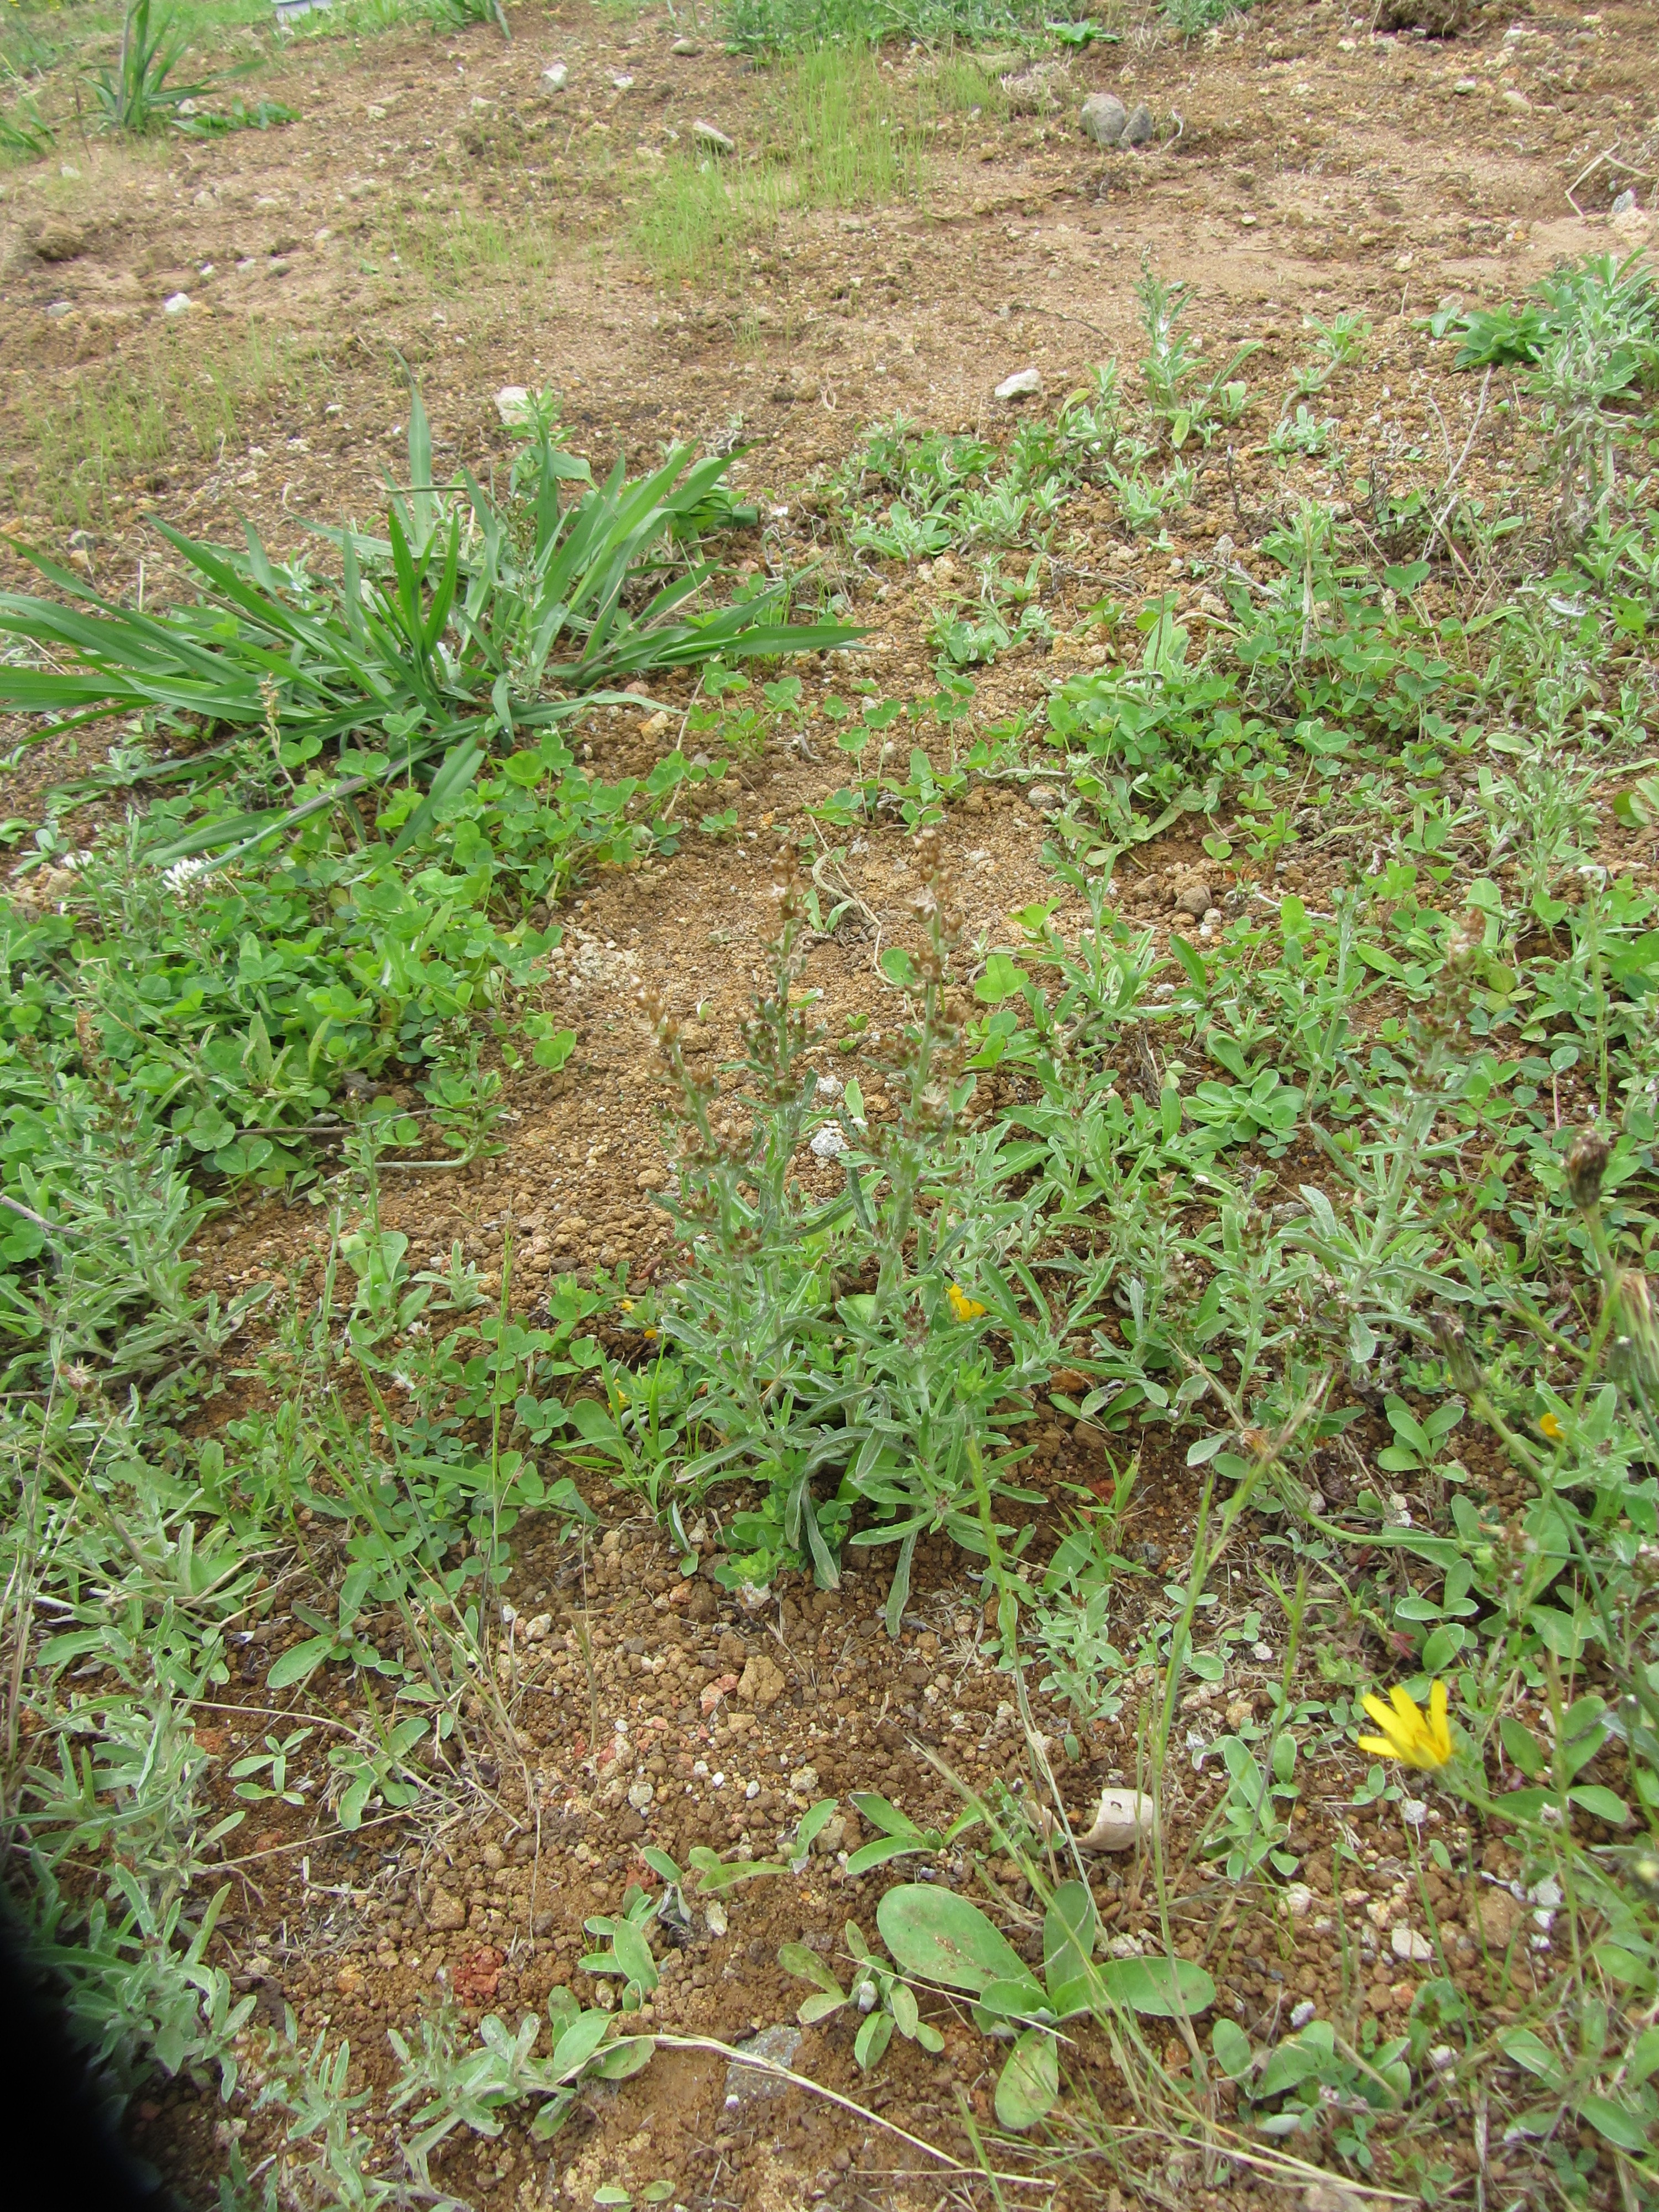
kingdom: Plantae
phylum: Tracheophyta
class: Magnoliopsida
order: Asterales
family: Asteraceae
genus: Gamochaeta
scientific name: Gamochaeta calviceps
